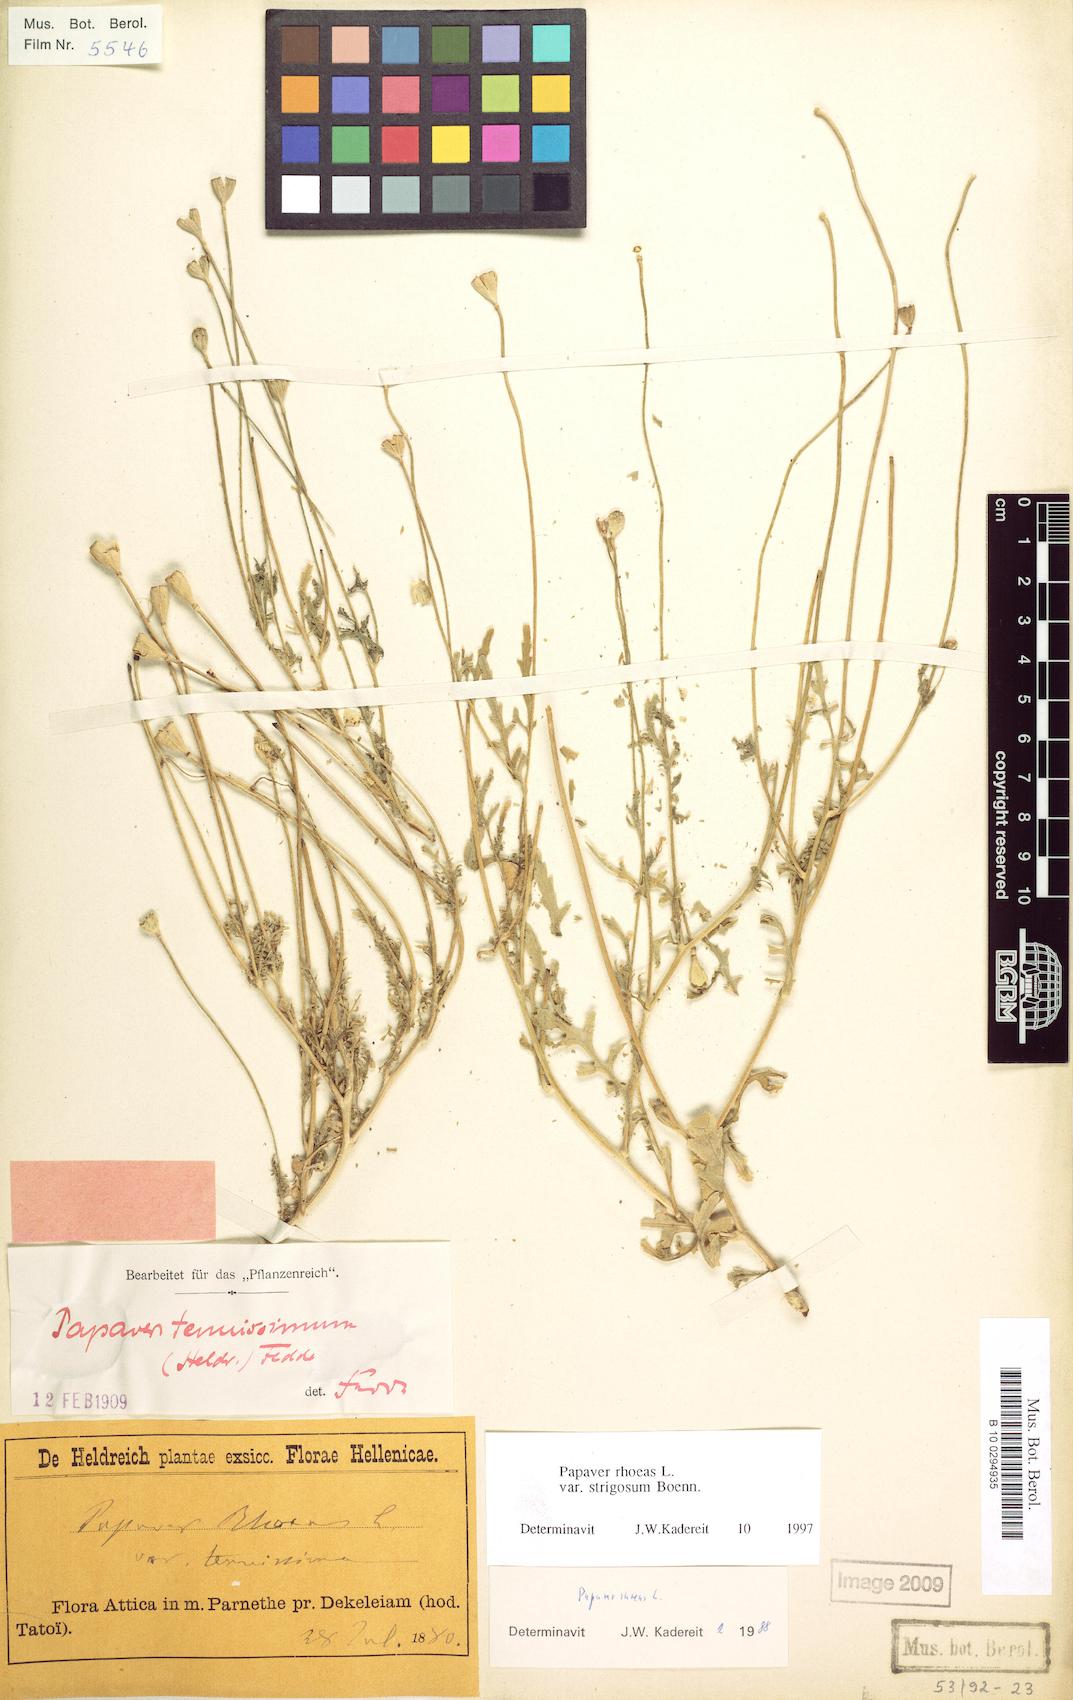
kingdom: Plantae
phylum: Tracheophyta
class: Magnoliopsida
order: Ranunculales
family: Papaveraceae
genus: Papaver
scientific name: Papaver rhoeas
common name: Corn poppy
